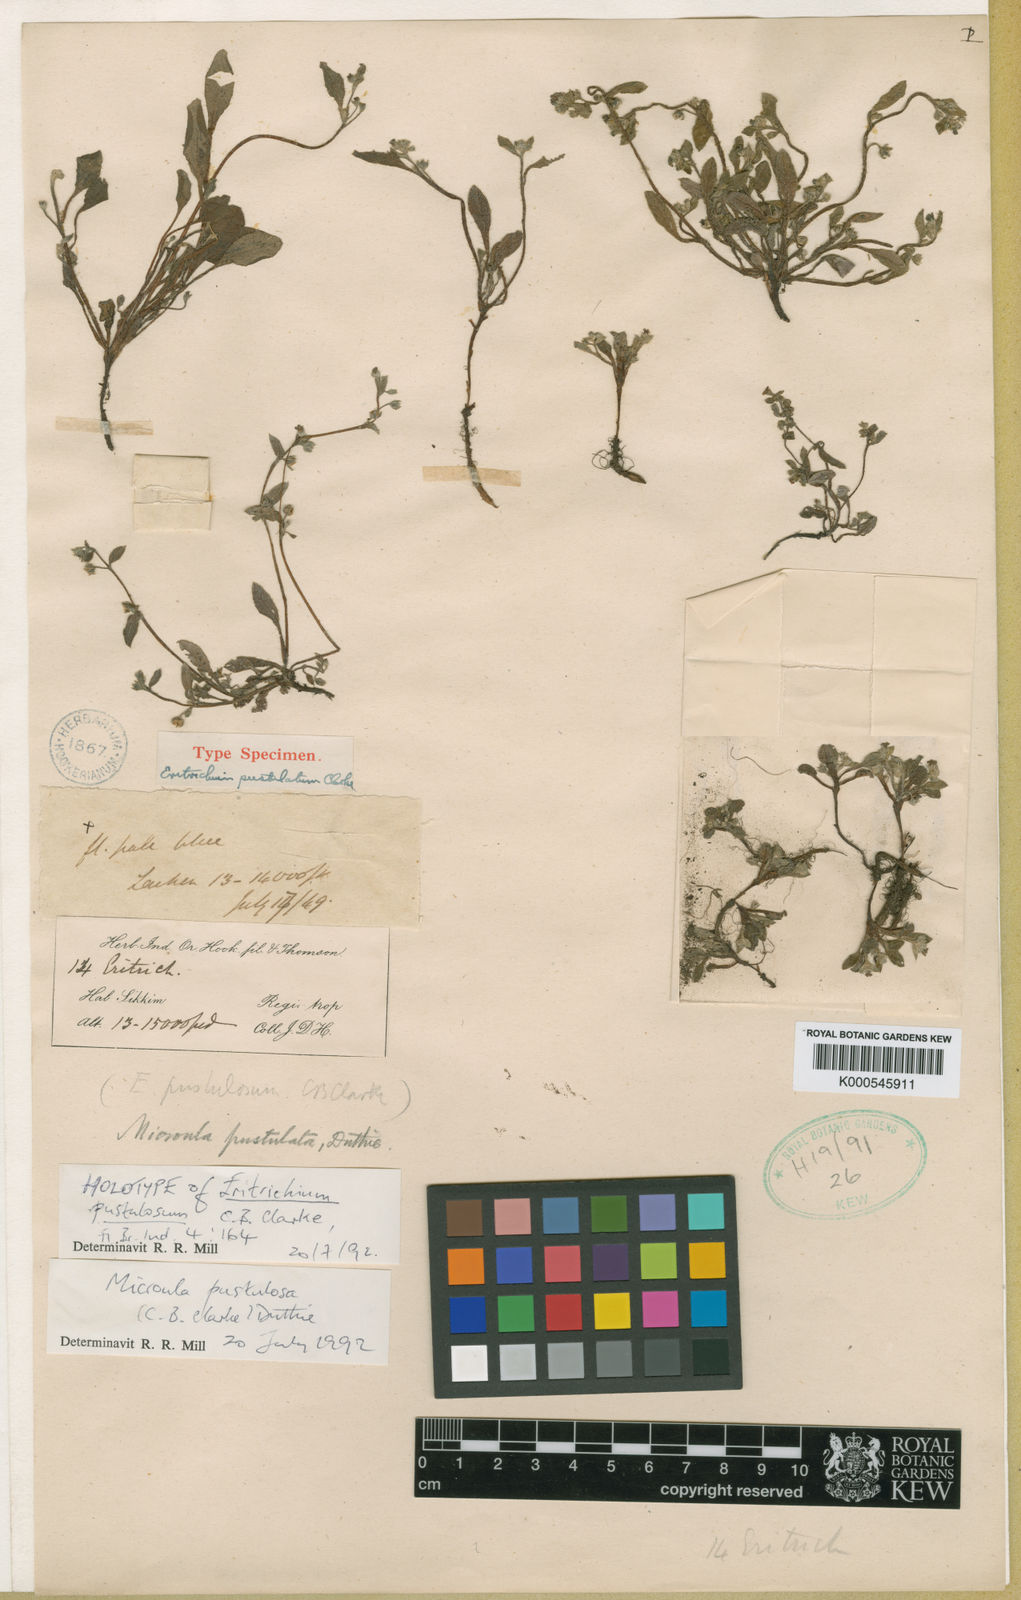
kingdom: Plantae
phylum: Tracheophyta
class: Magnoliopsida
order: Boraginales
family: Boraginaceae
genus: Microula
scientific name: Microula pustulosa
